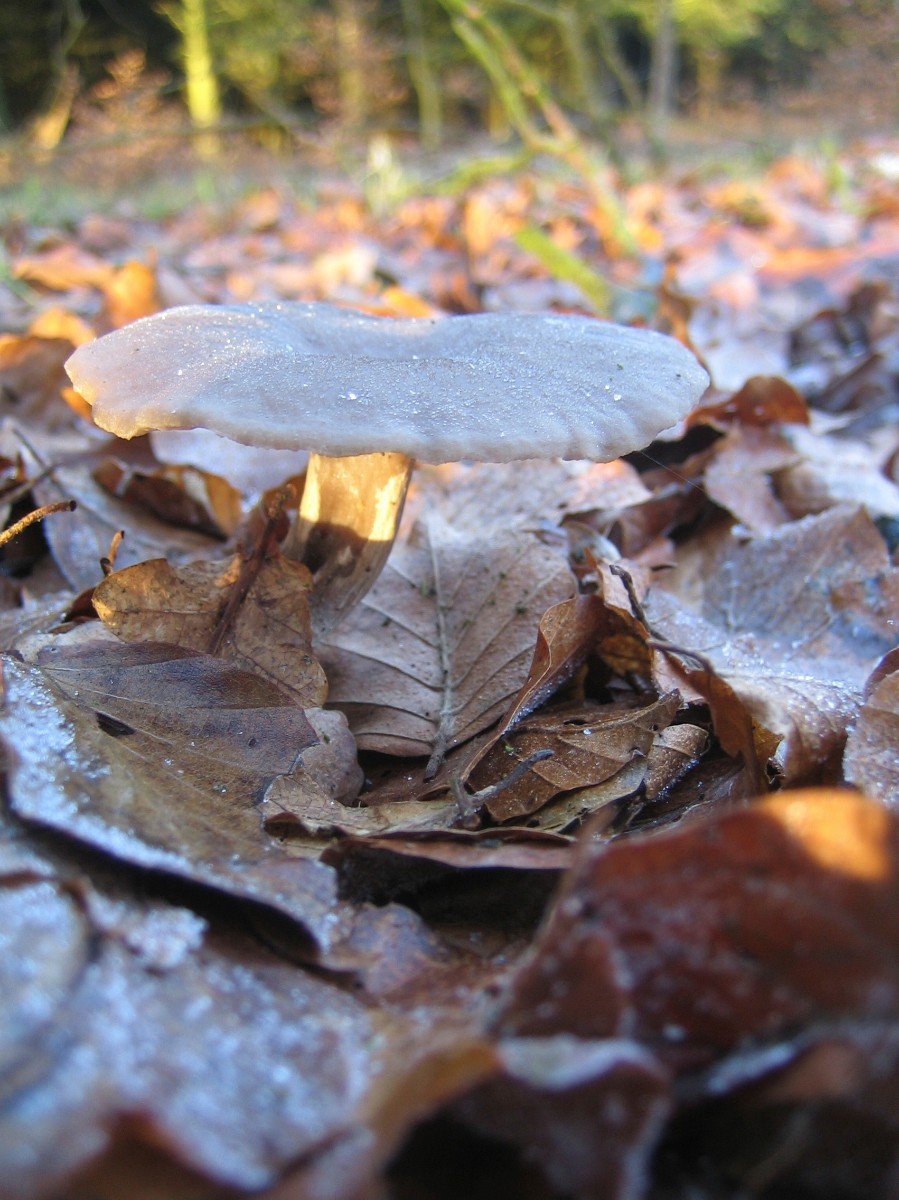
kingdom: Fungi
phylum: Basidiomycota
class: Agaricomycetes
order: Agaricales
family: Pseudoclitocybaceae
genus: Pseudoclitocybe
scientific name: Pseudoclitocybe cyathiformis
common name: almindelig bægertragthat
